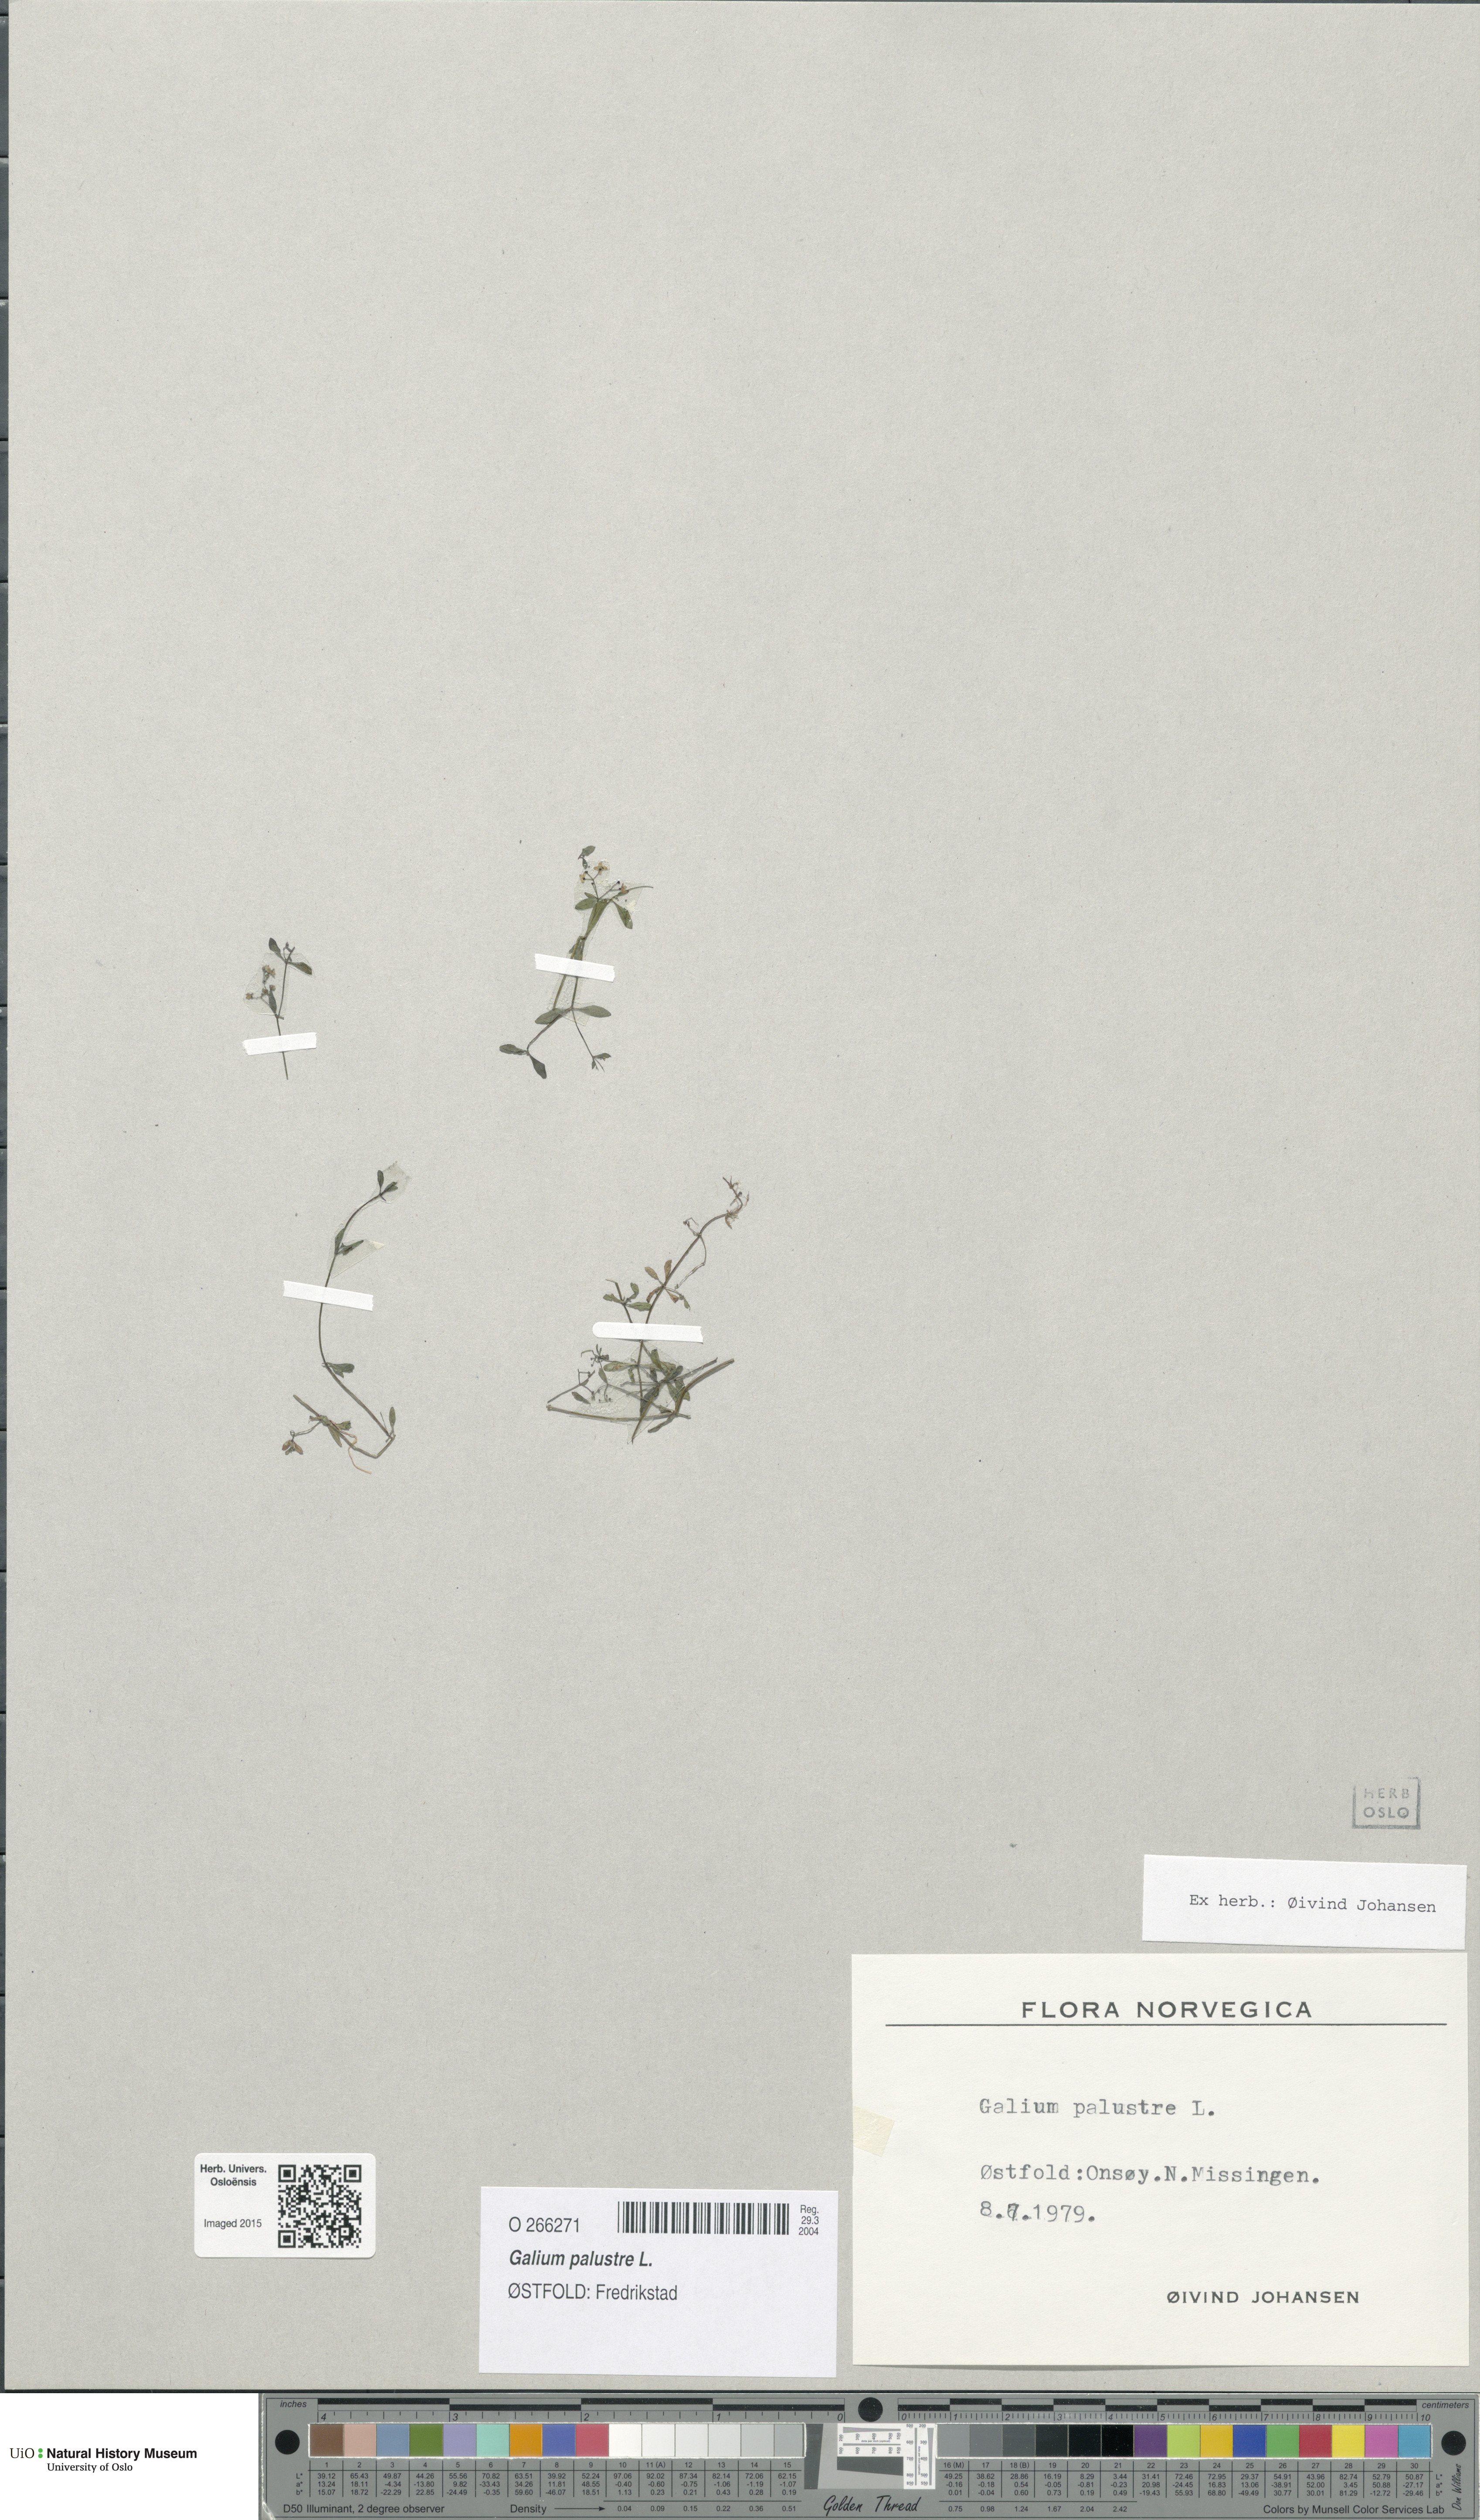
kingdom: Plantae
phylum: Tracheophyta
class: Magnoliopsida
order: Gentianales
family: Rubiaceae
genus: Galium
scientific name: Galium palustre
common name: Common marsh-bedstraw
